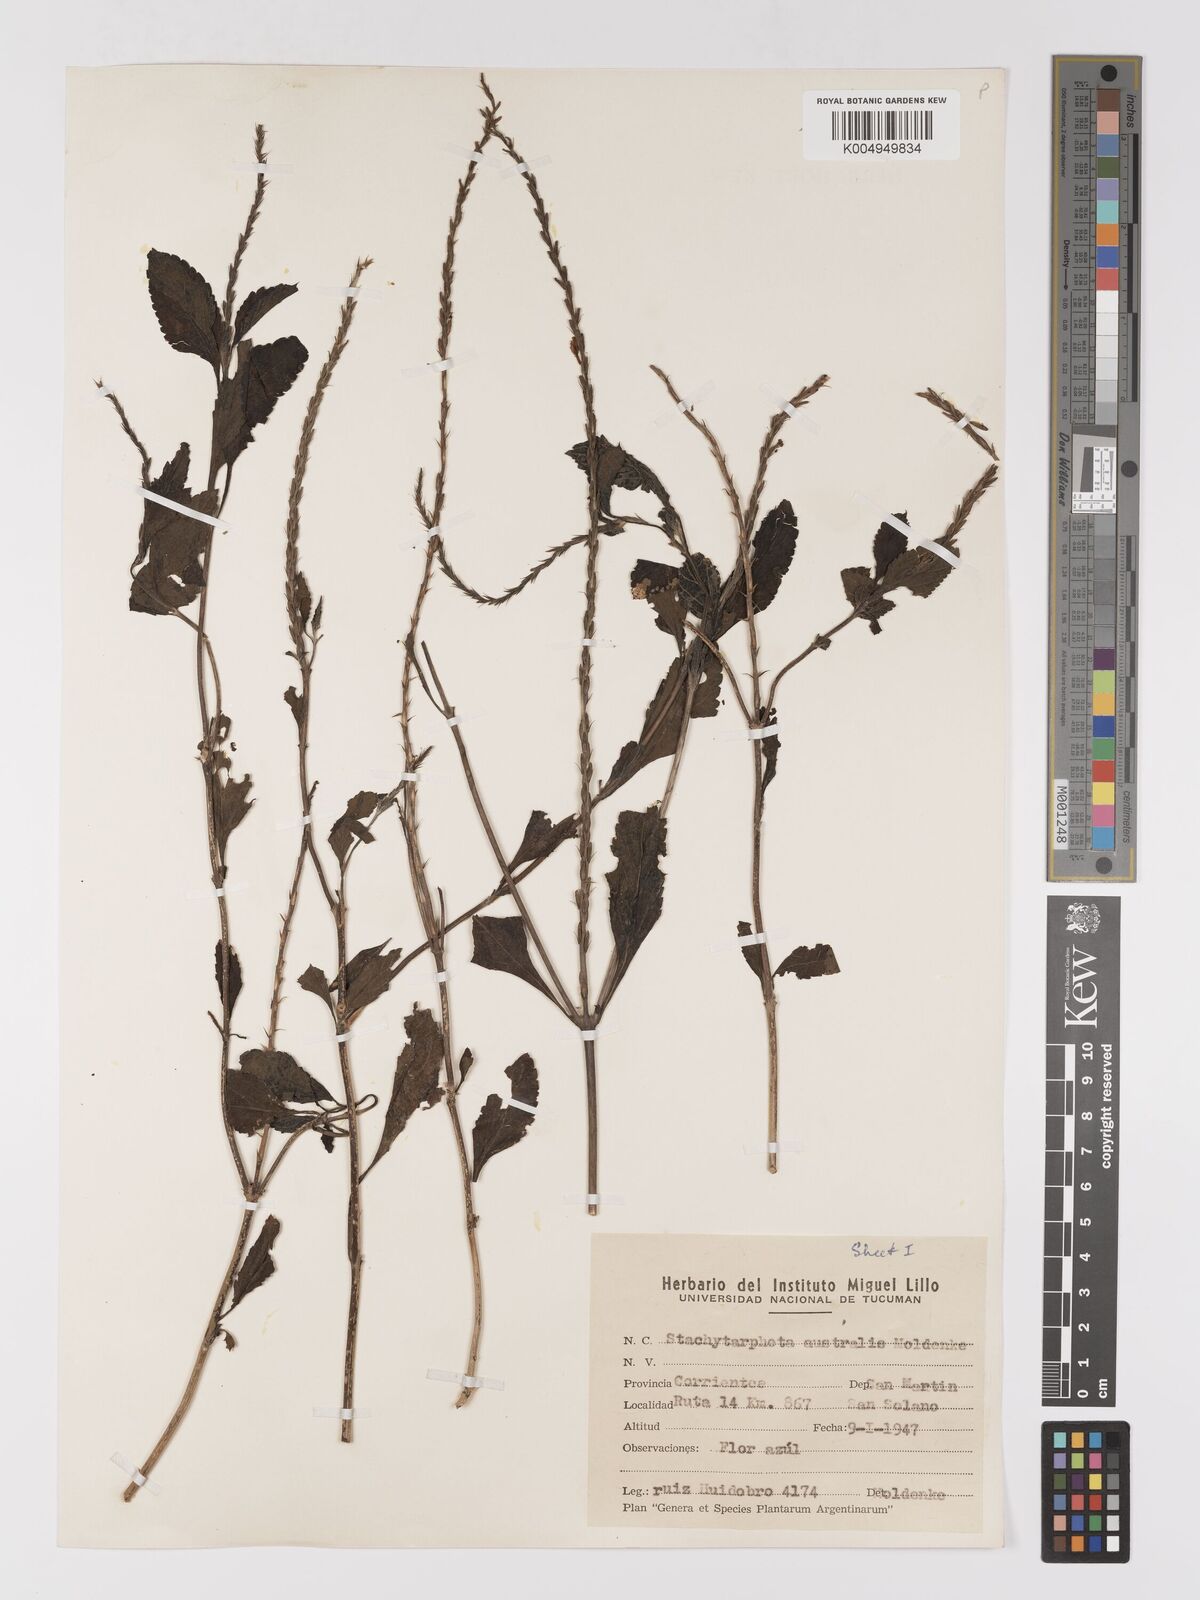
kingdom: Plantae
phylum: Tracheophyta
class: Magnoliopsida
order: Lamiales
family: Verbenaceae
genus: Stachytarpheta
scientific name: Stachytarpheta cayennensis
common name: Cayenne porterweed
